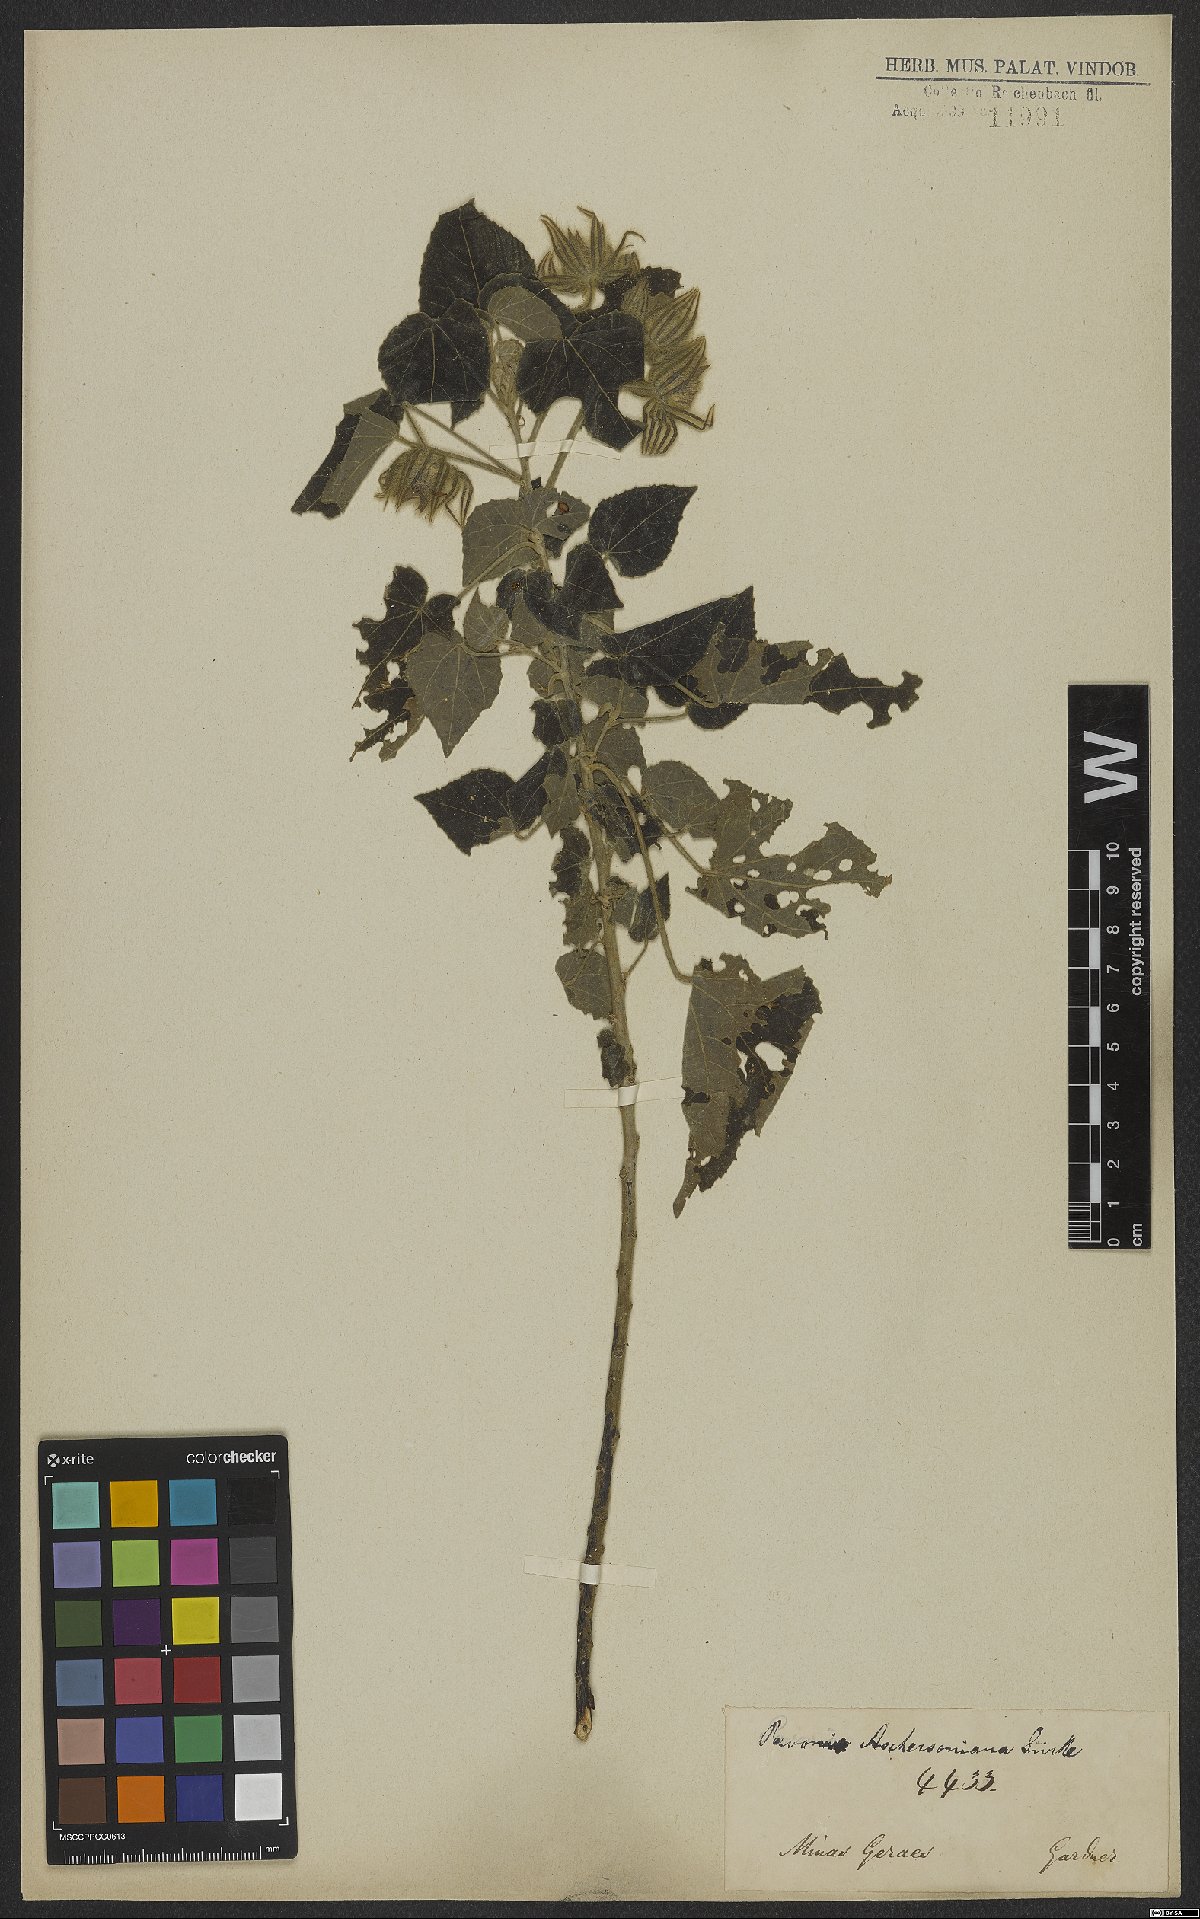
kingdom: Plantae
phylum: Tracheophyta
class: Magnoliopsida
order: Malvales
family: Malvaceae
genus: Pavonia
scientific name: Pavonia aschersoniana
